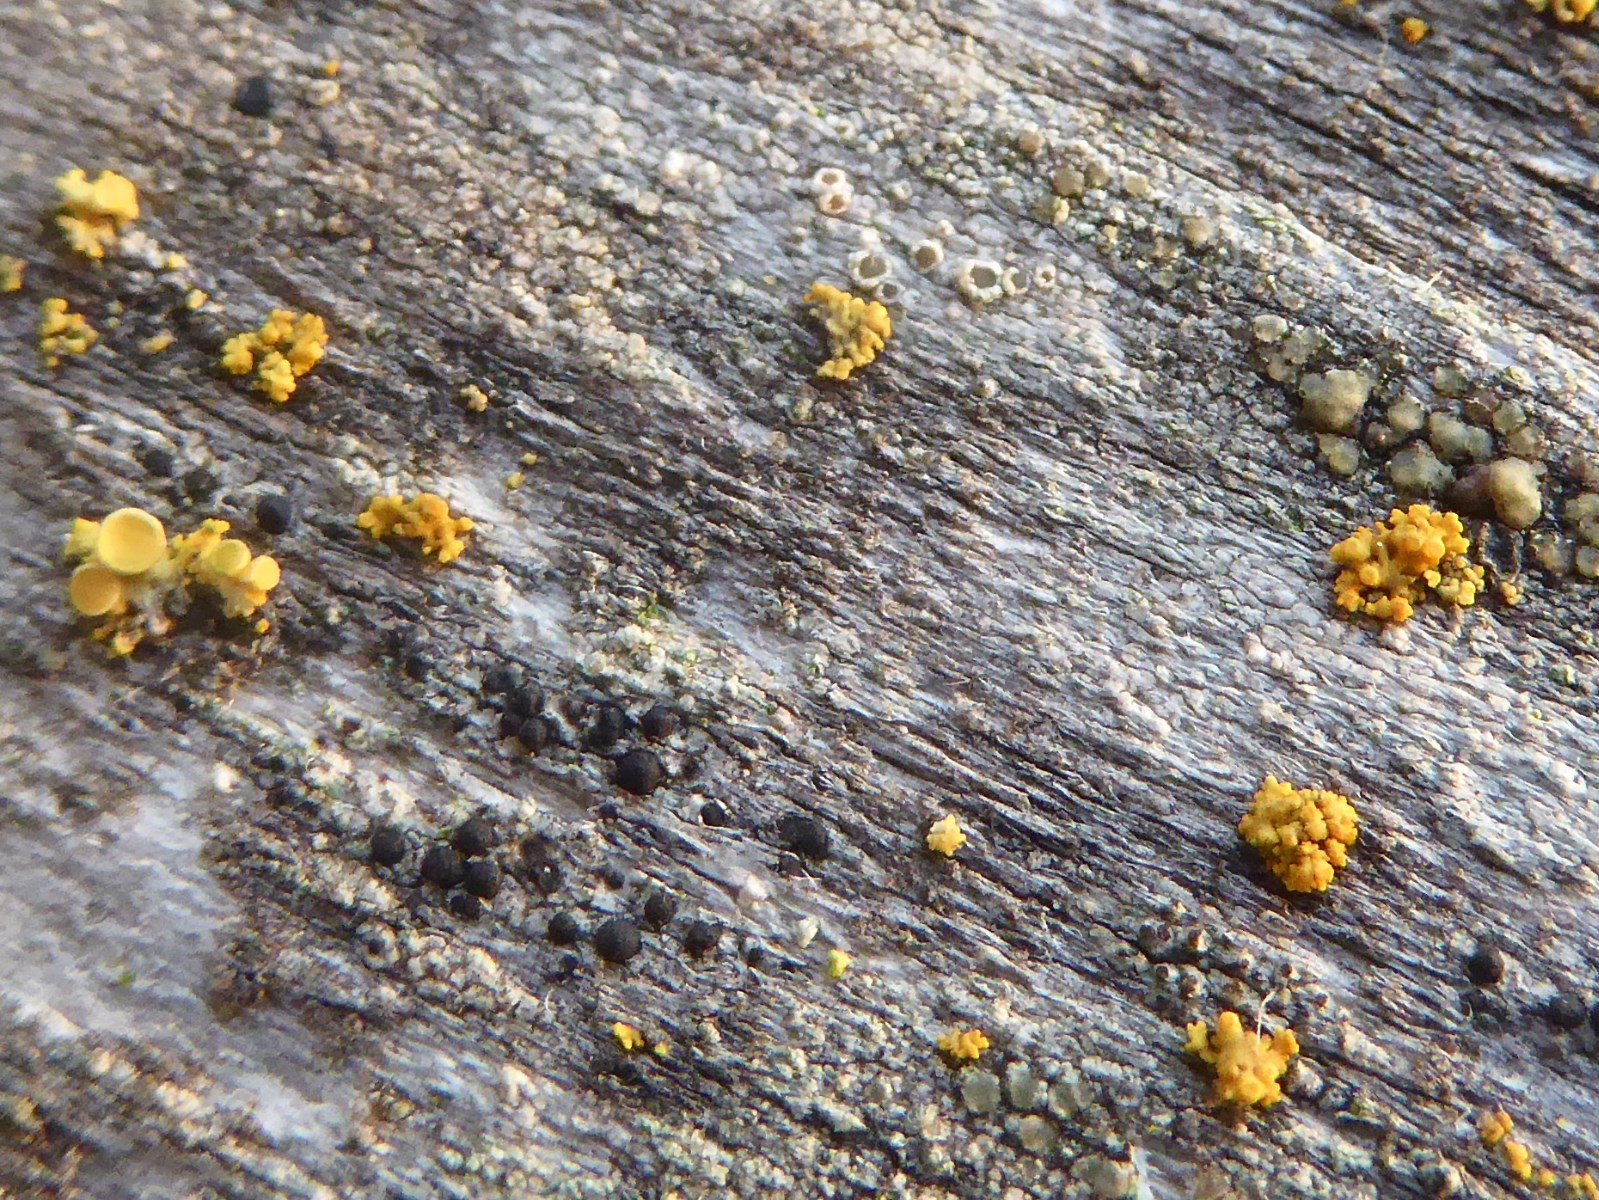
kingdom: Fungi
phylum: Ascomycota
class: Lecanoromycetes
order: Teloschistales
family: Teloschistaceae
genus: Polycauliona
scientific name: Polycauliona polycarpa
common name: mangefrugtet orangelav
